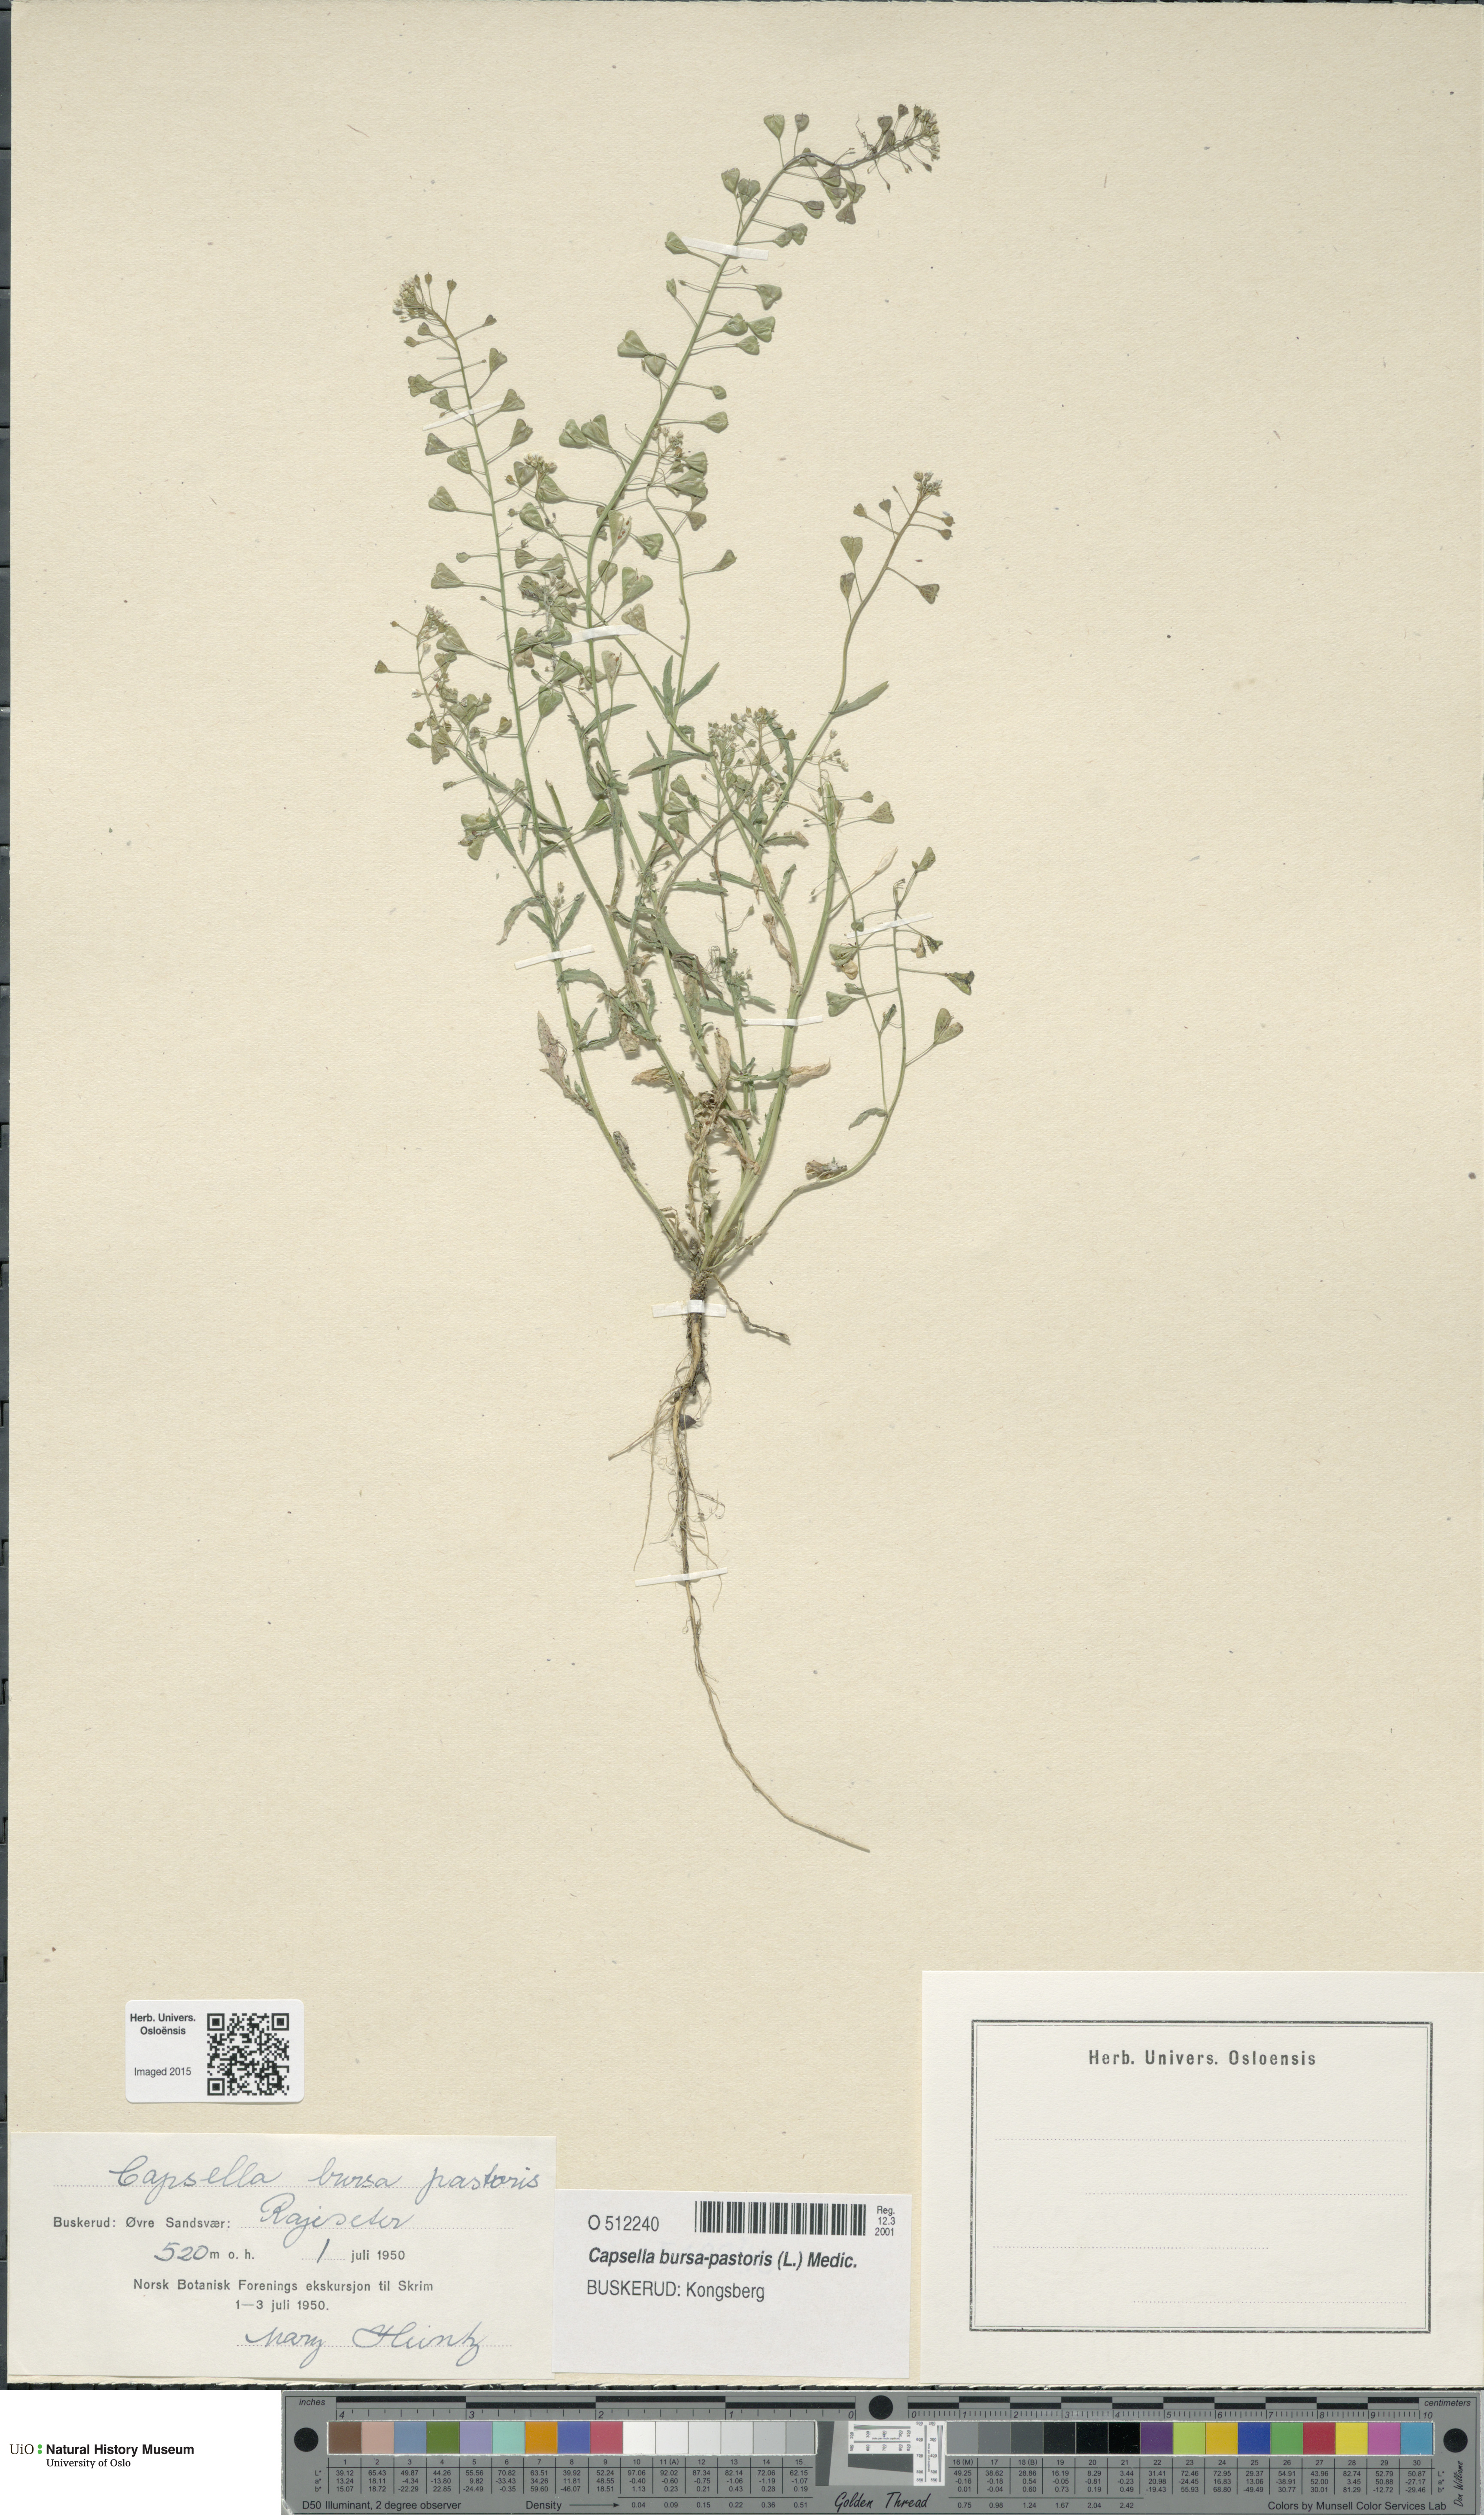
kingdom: Plantae
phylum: Tracheophyta
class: Magnoliopsida
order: Brassicales
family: Brassicaceae
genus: Capsella
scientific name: Capsella bursa-pastoris
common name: Shepherd's purse
